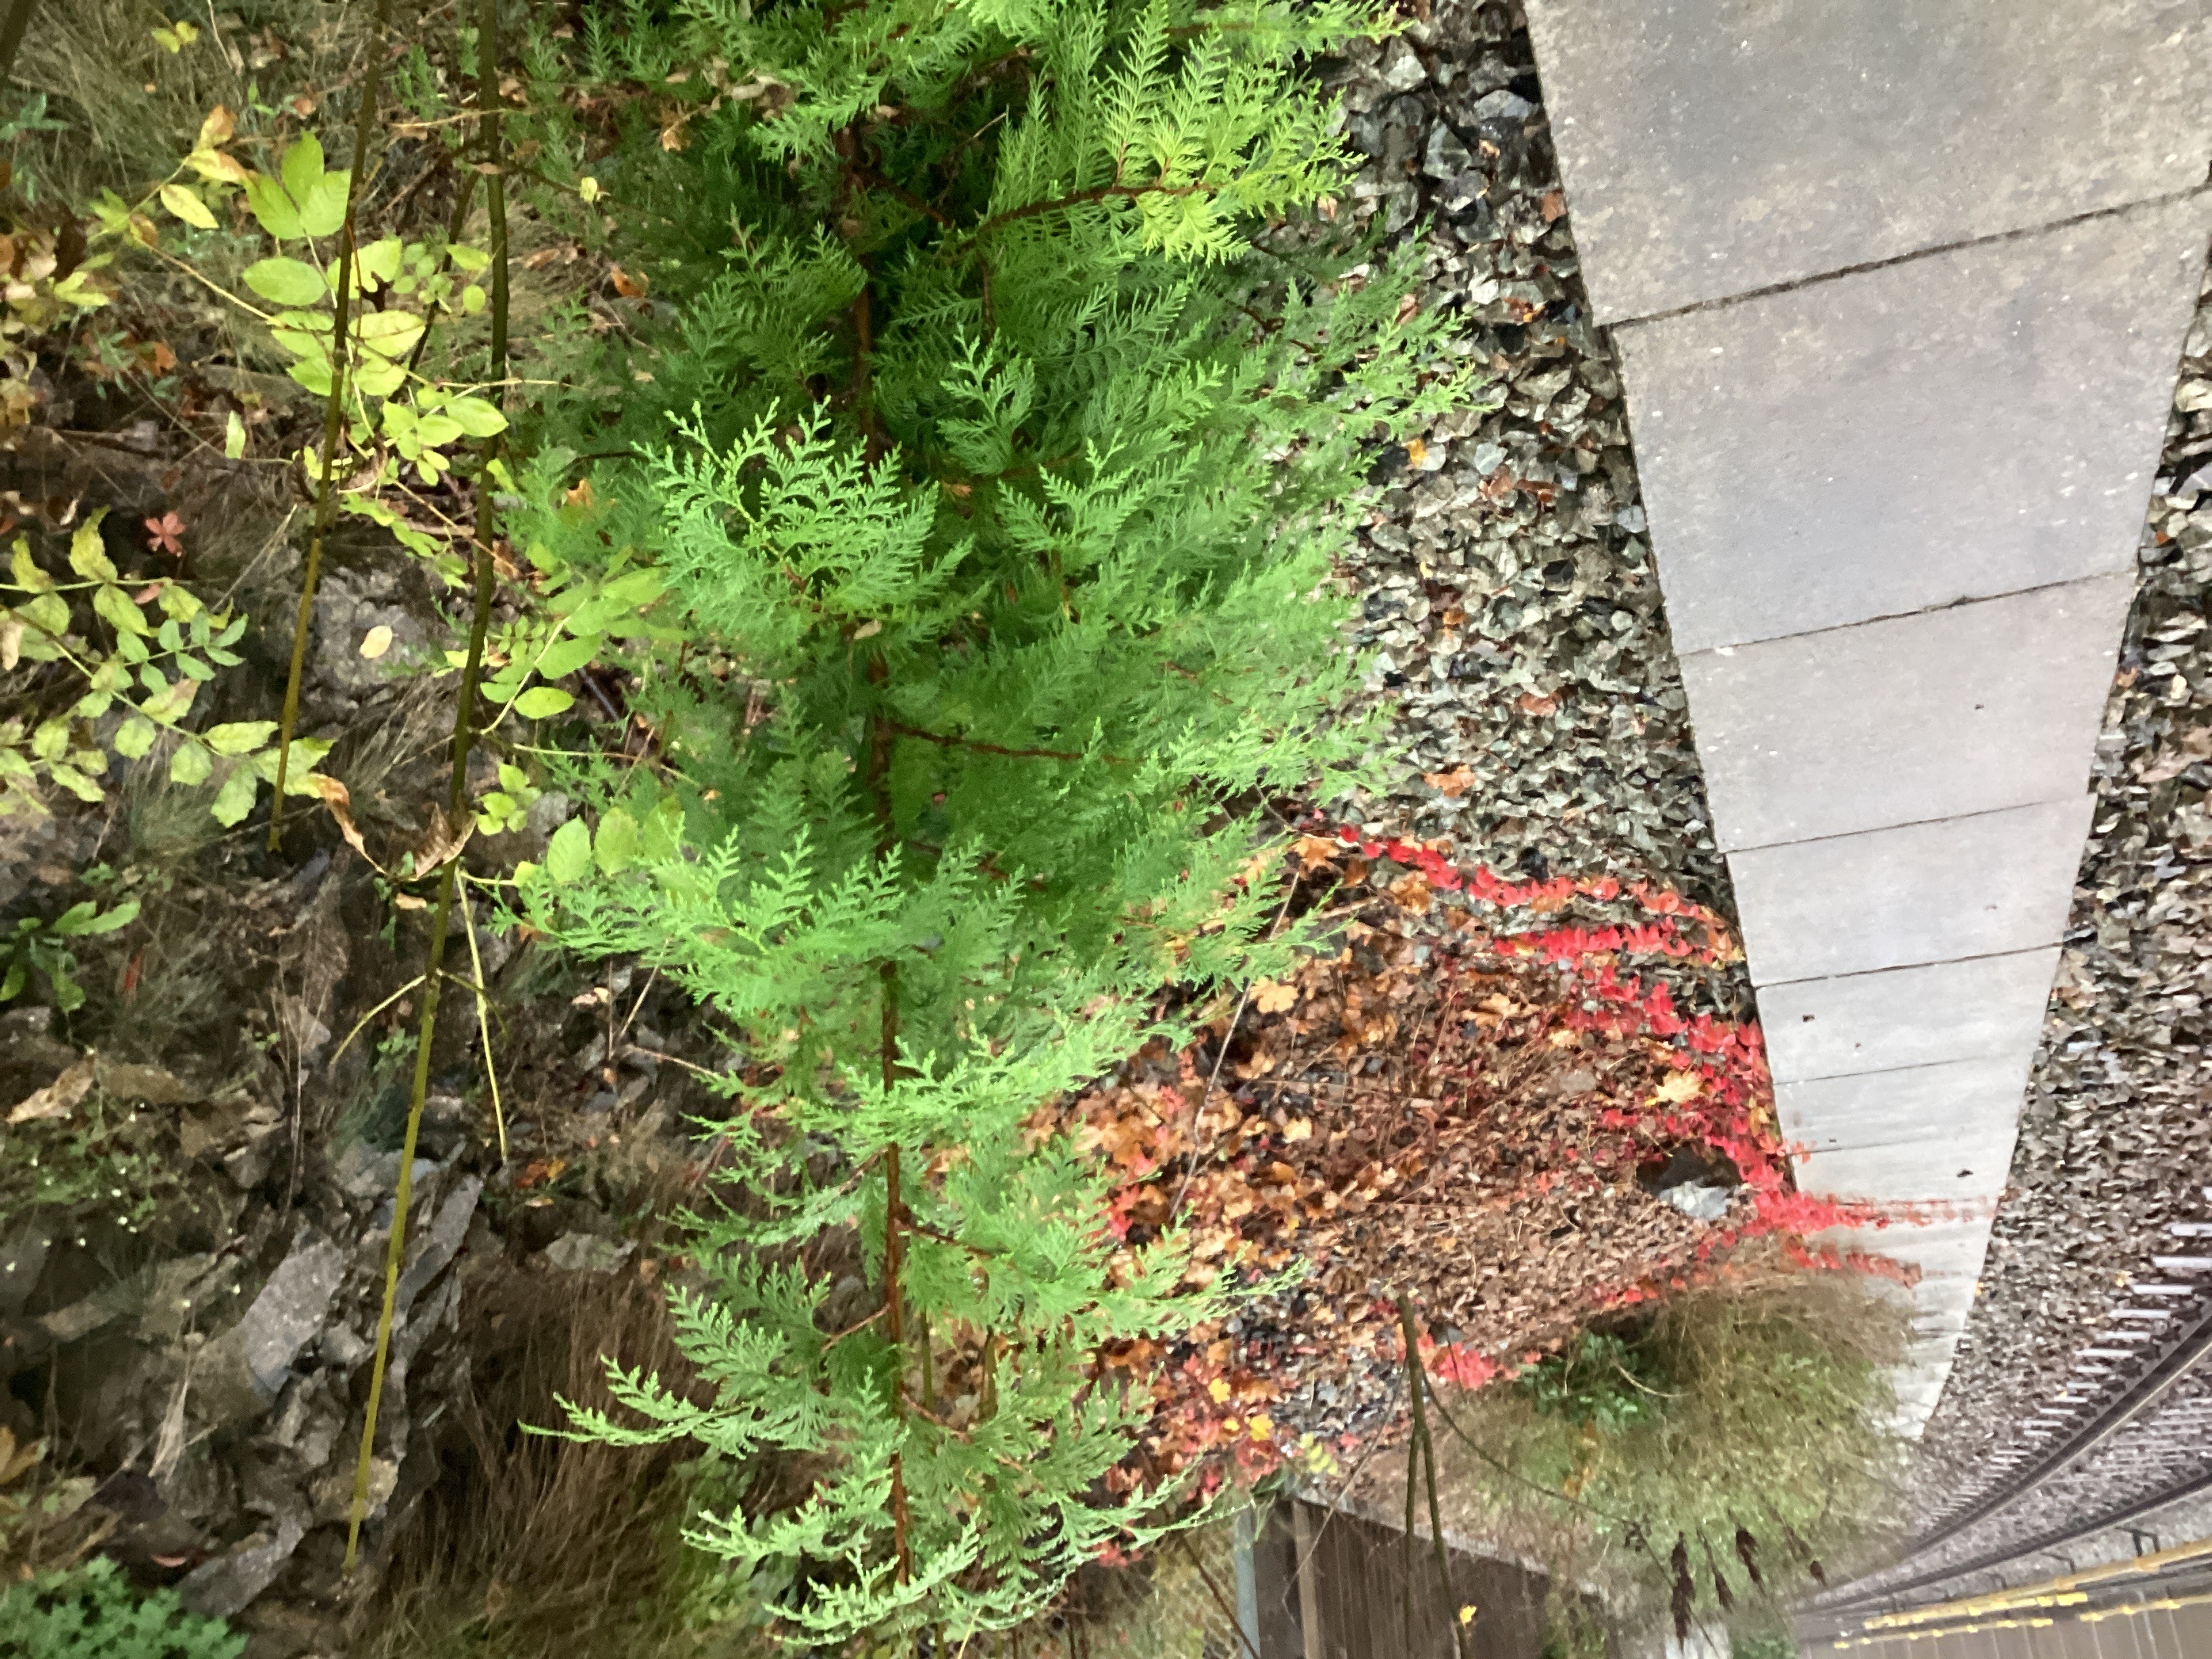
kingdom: Plantae
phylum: Tracheophyta
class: Pinopsida
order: Pinales
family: Cupressaceae
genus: Thuja
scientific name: Thuja occidentalis
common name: tuja
